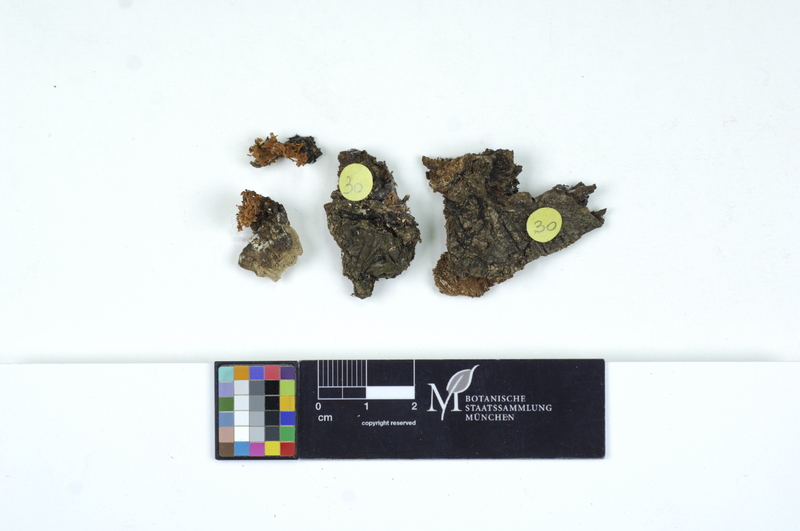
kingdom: Fungi
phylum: Basidiomycota
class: Dacrymycetes
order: Dacrymycetales
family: Dacrymycetaceae
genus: Calocera
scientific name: Calocera cornea
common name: Small stagshorn
